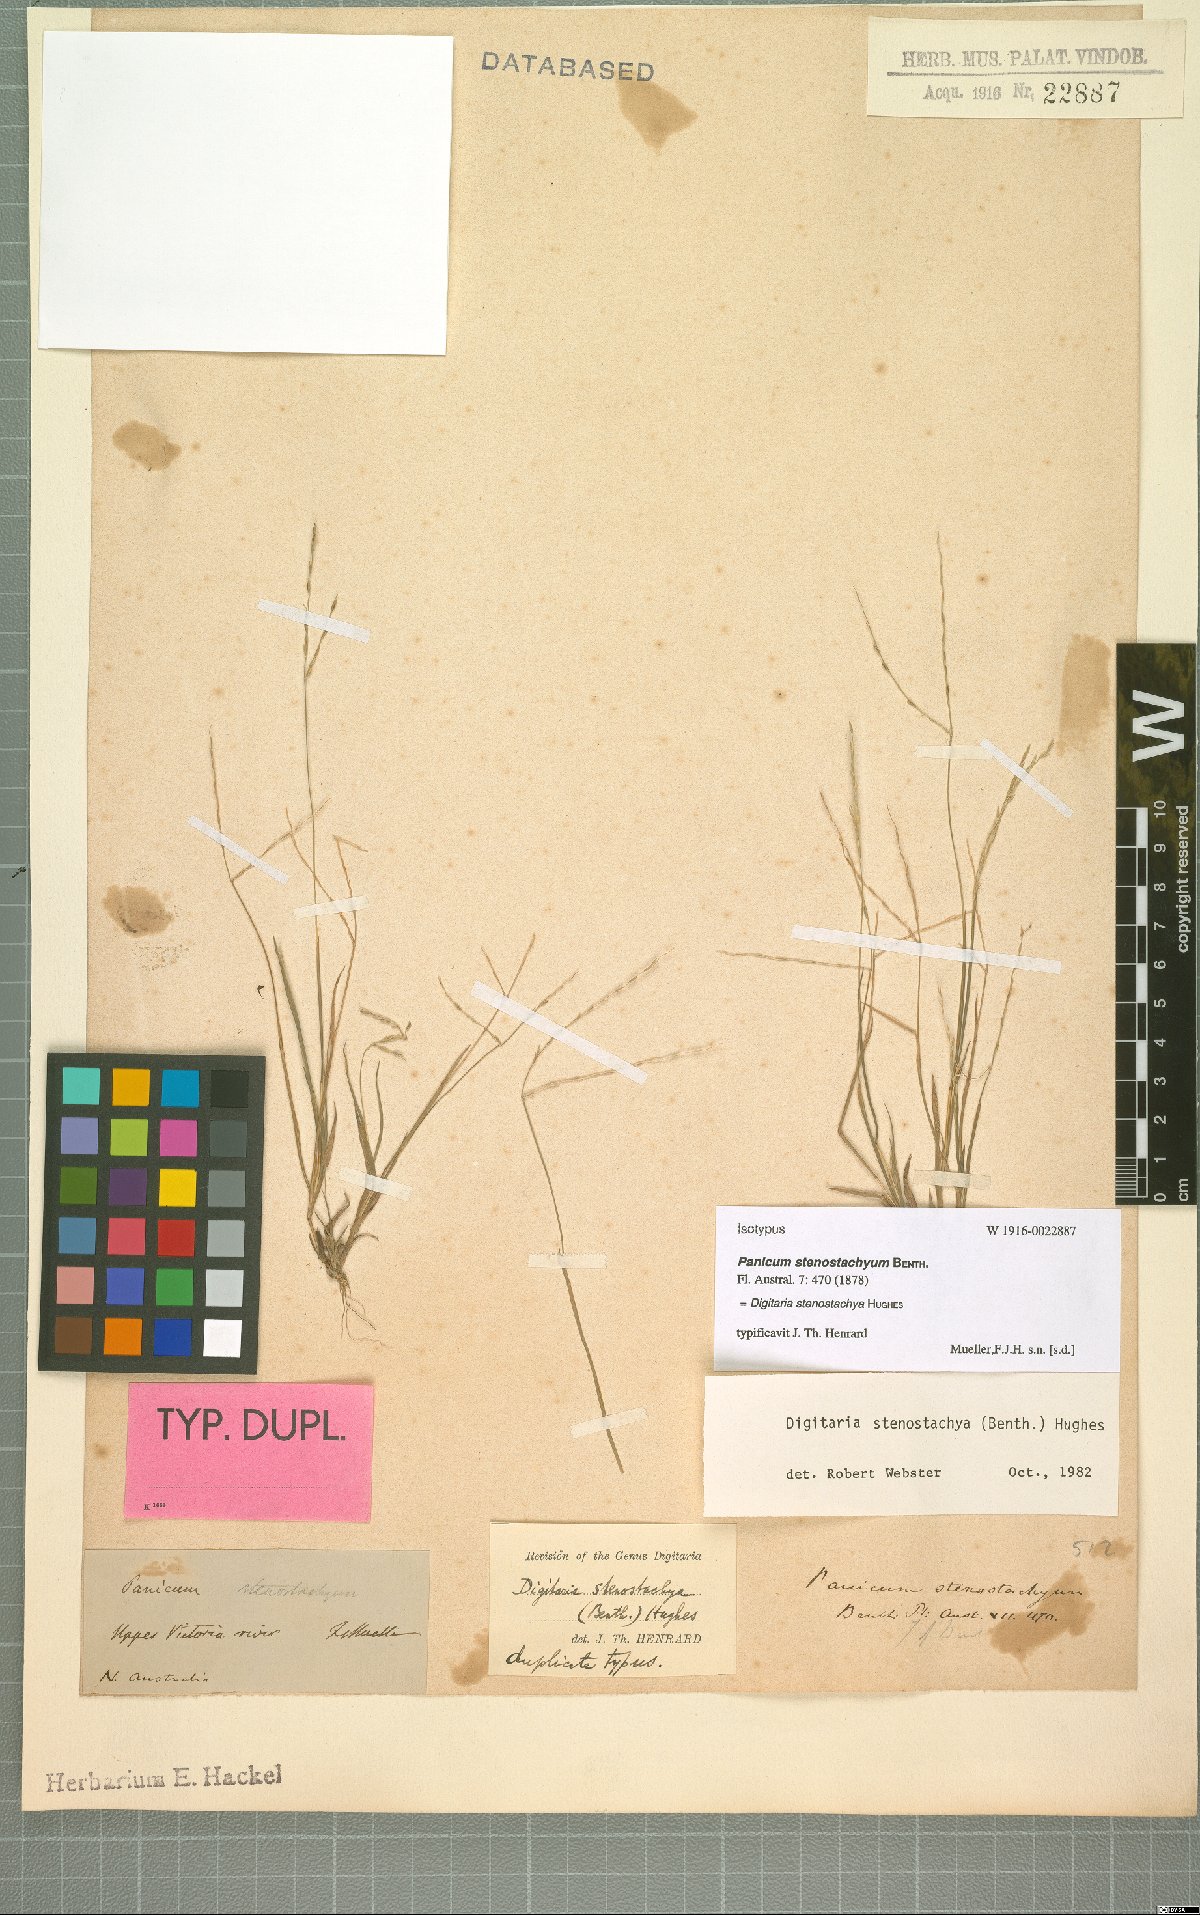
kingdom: Plantae
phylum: Tracheophyta
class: Liliopsida
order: Poales
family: Poaceae
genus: Digitaria
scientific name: Digitaria stenostachya
